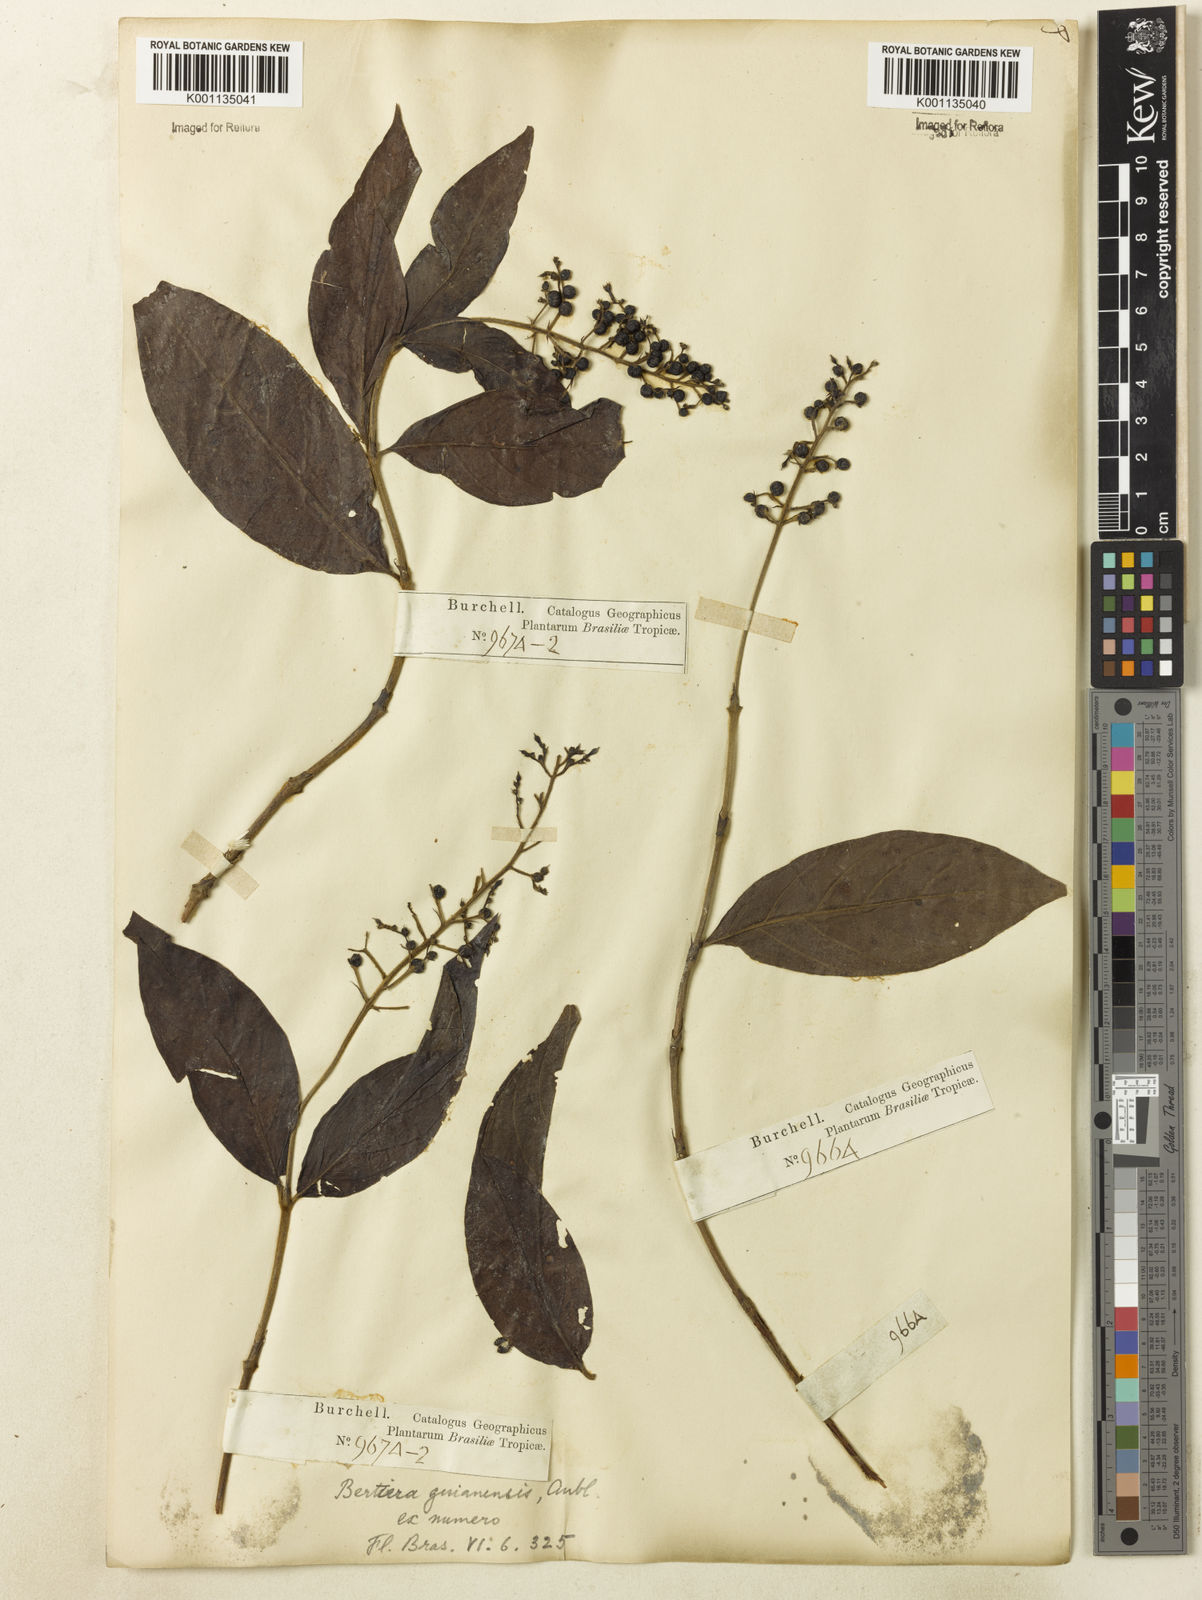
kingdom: Plantae
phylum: Tracheophyta
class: Magnoliopsida
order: Gentianales
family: Rubiaceae
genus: Bertiera
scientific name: Bertiera guianensis
